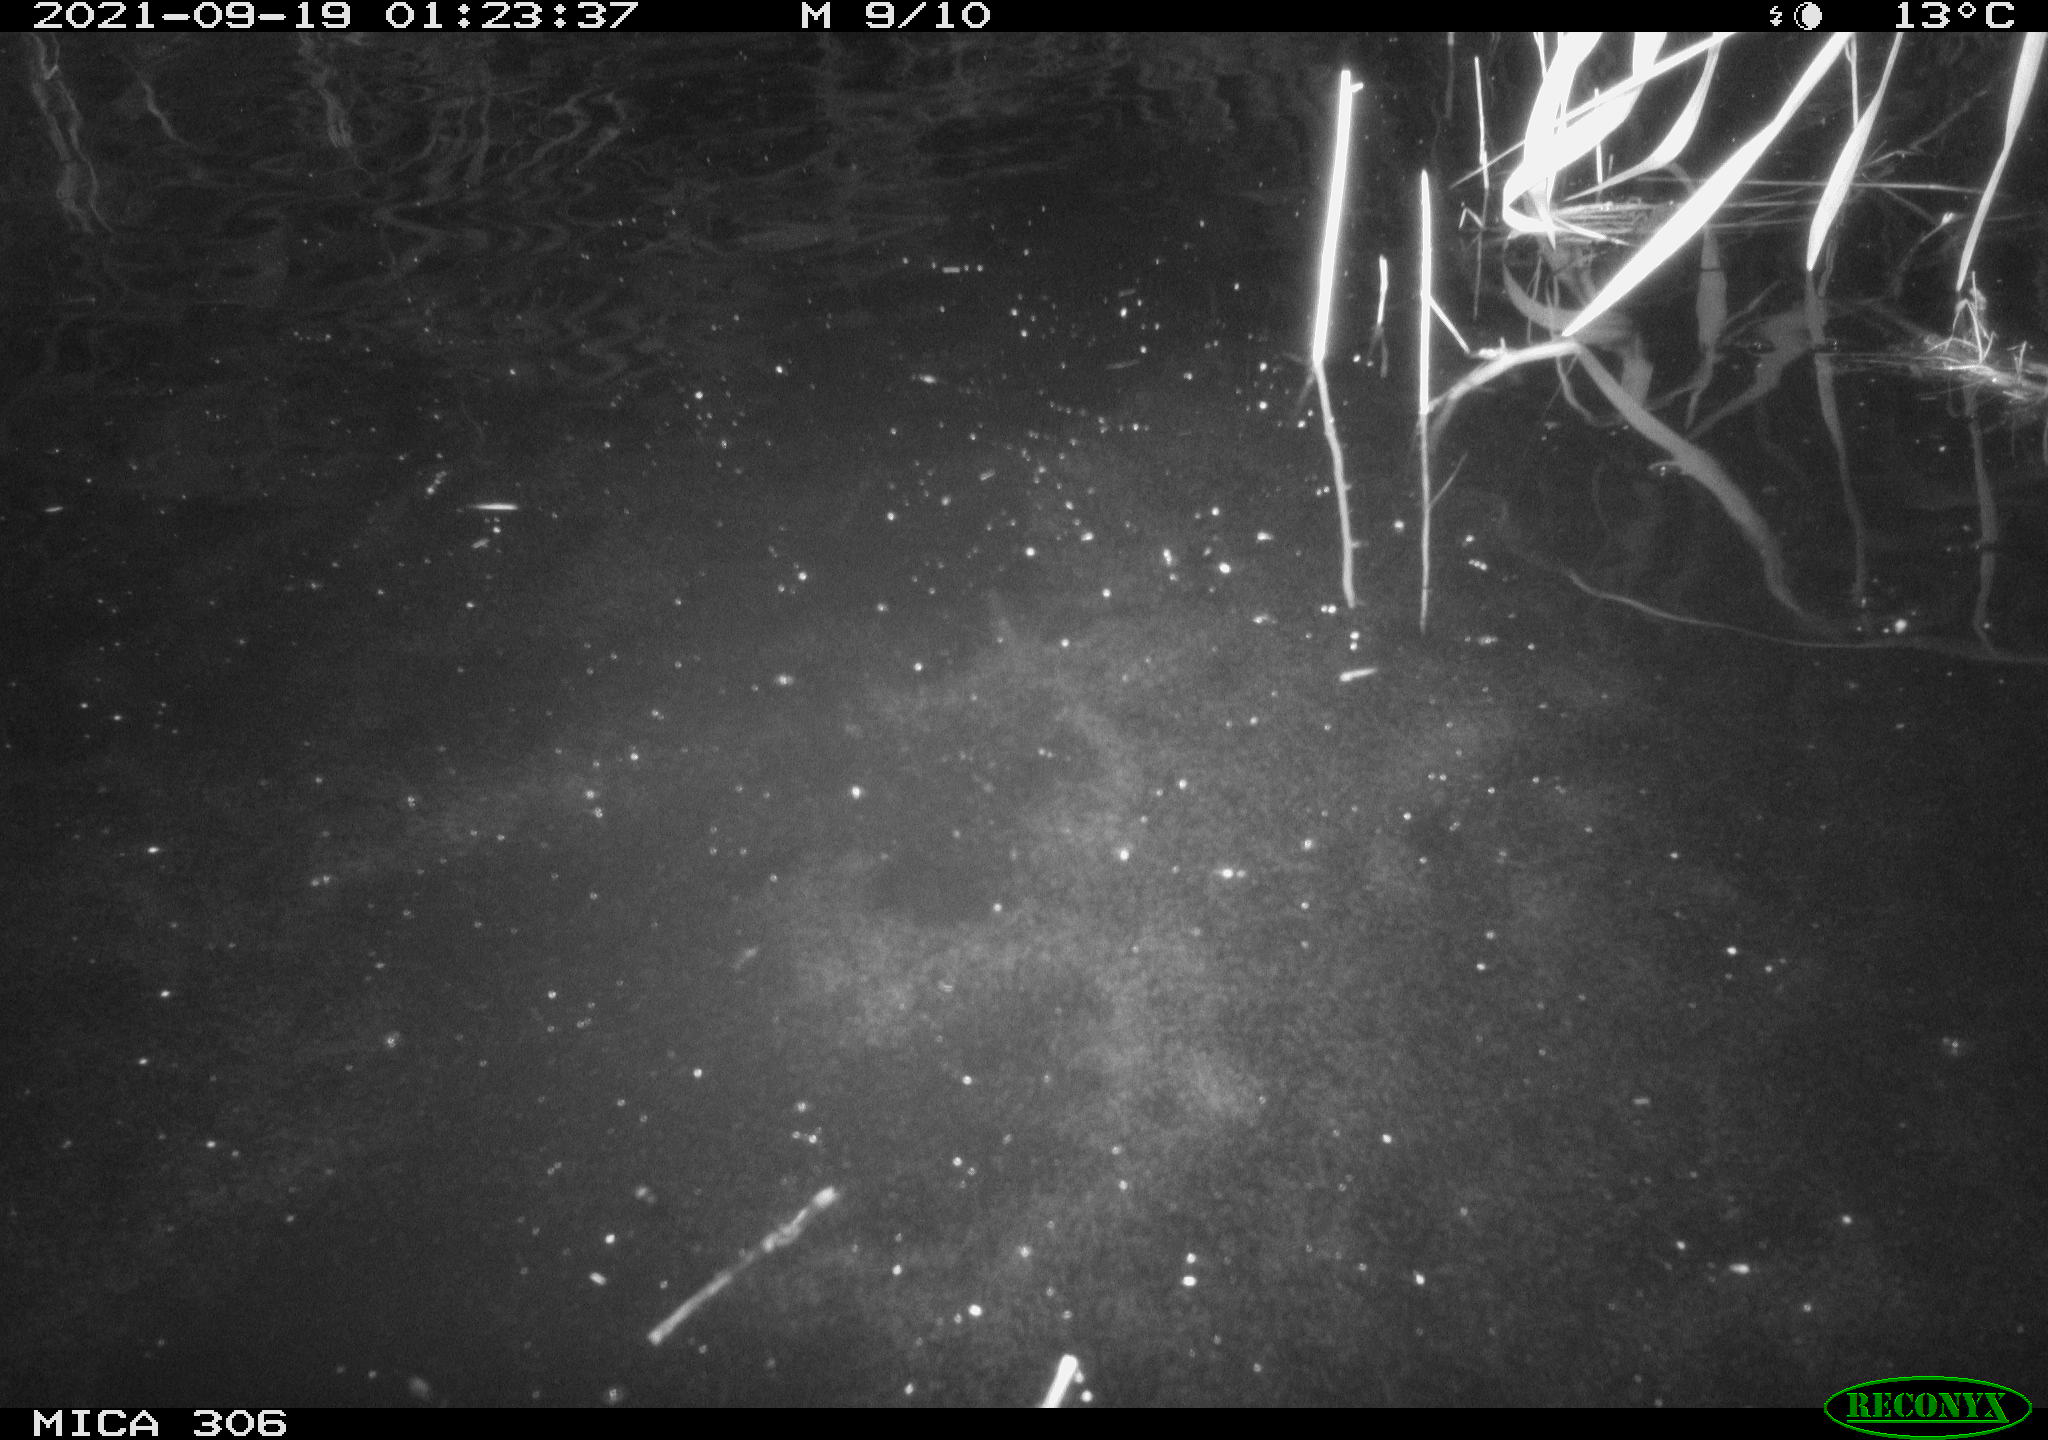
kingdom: Animalia
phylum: Chordata
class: Mammalia
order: Rodentia
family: Cricetidae
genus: Ondatra
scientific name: Ondatra zibethicus
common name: Muskrat
